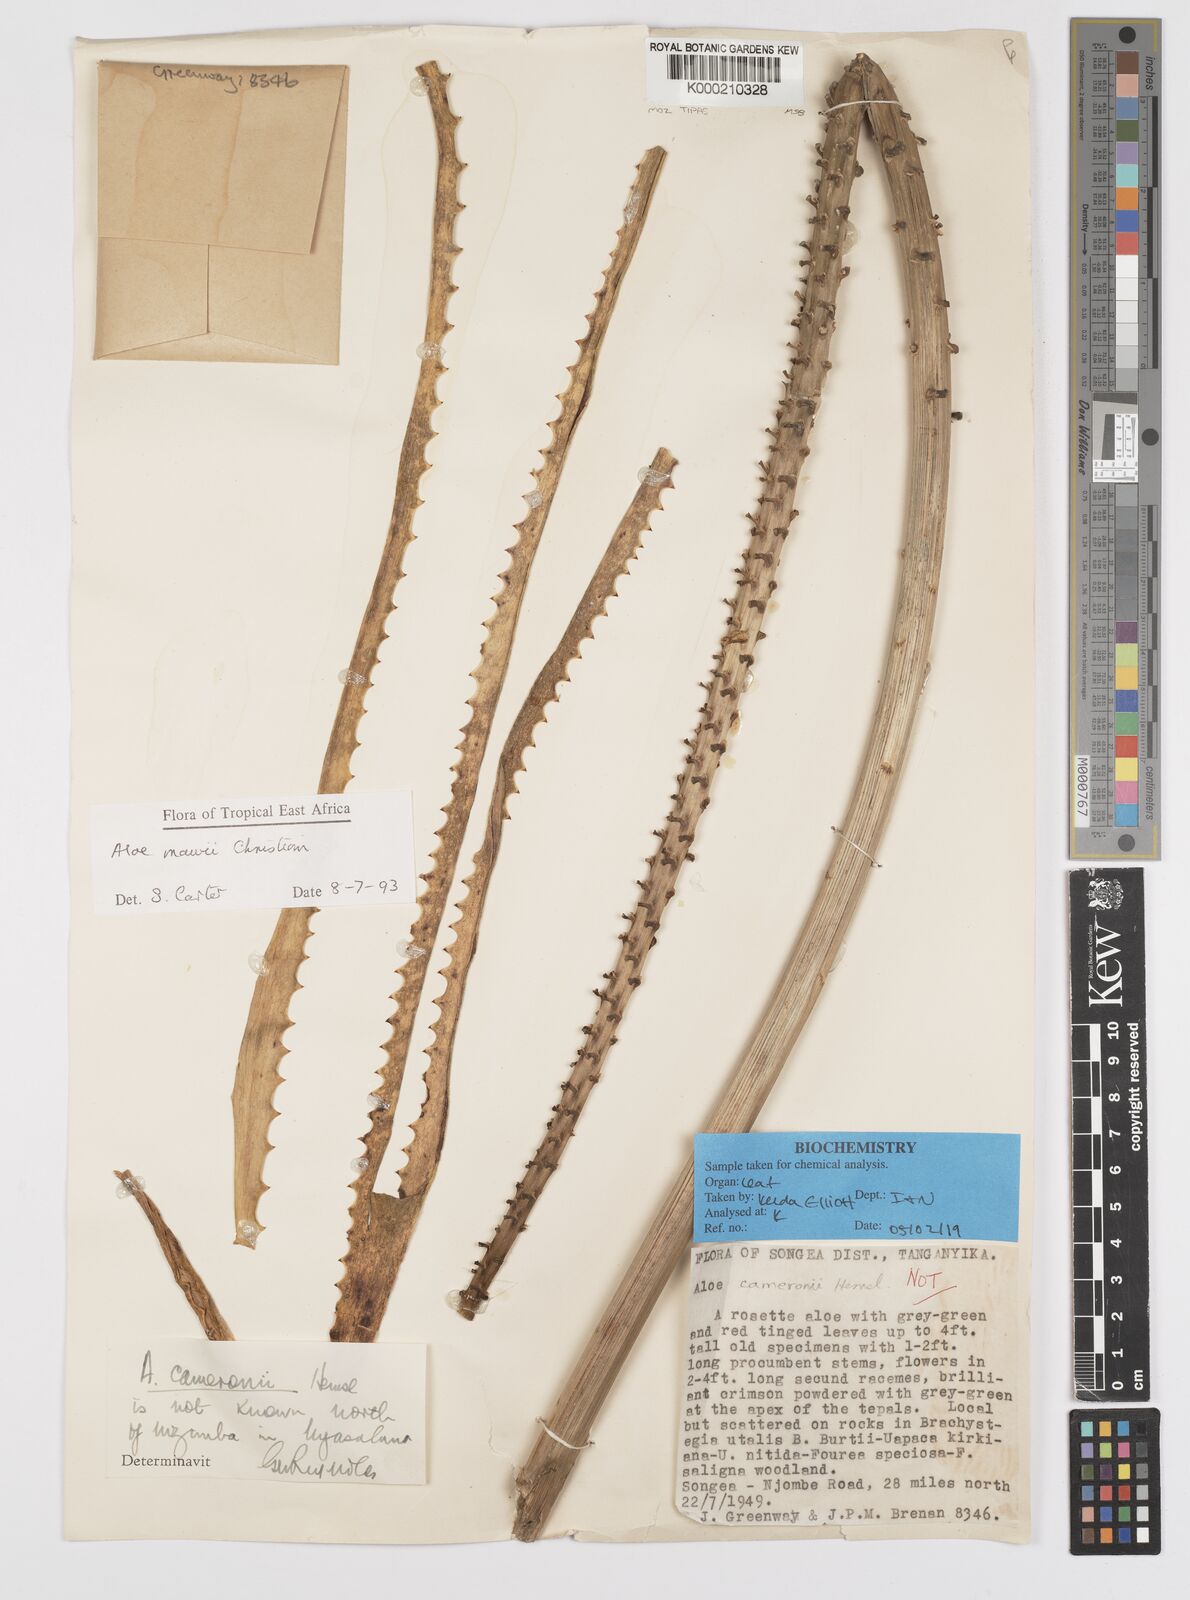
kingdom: Plantae
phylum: Tracheophyta
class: Liliopsida
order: Asparagales
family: Asphodelaceae
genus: Aloe
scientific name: Aloe mawii
